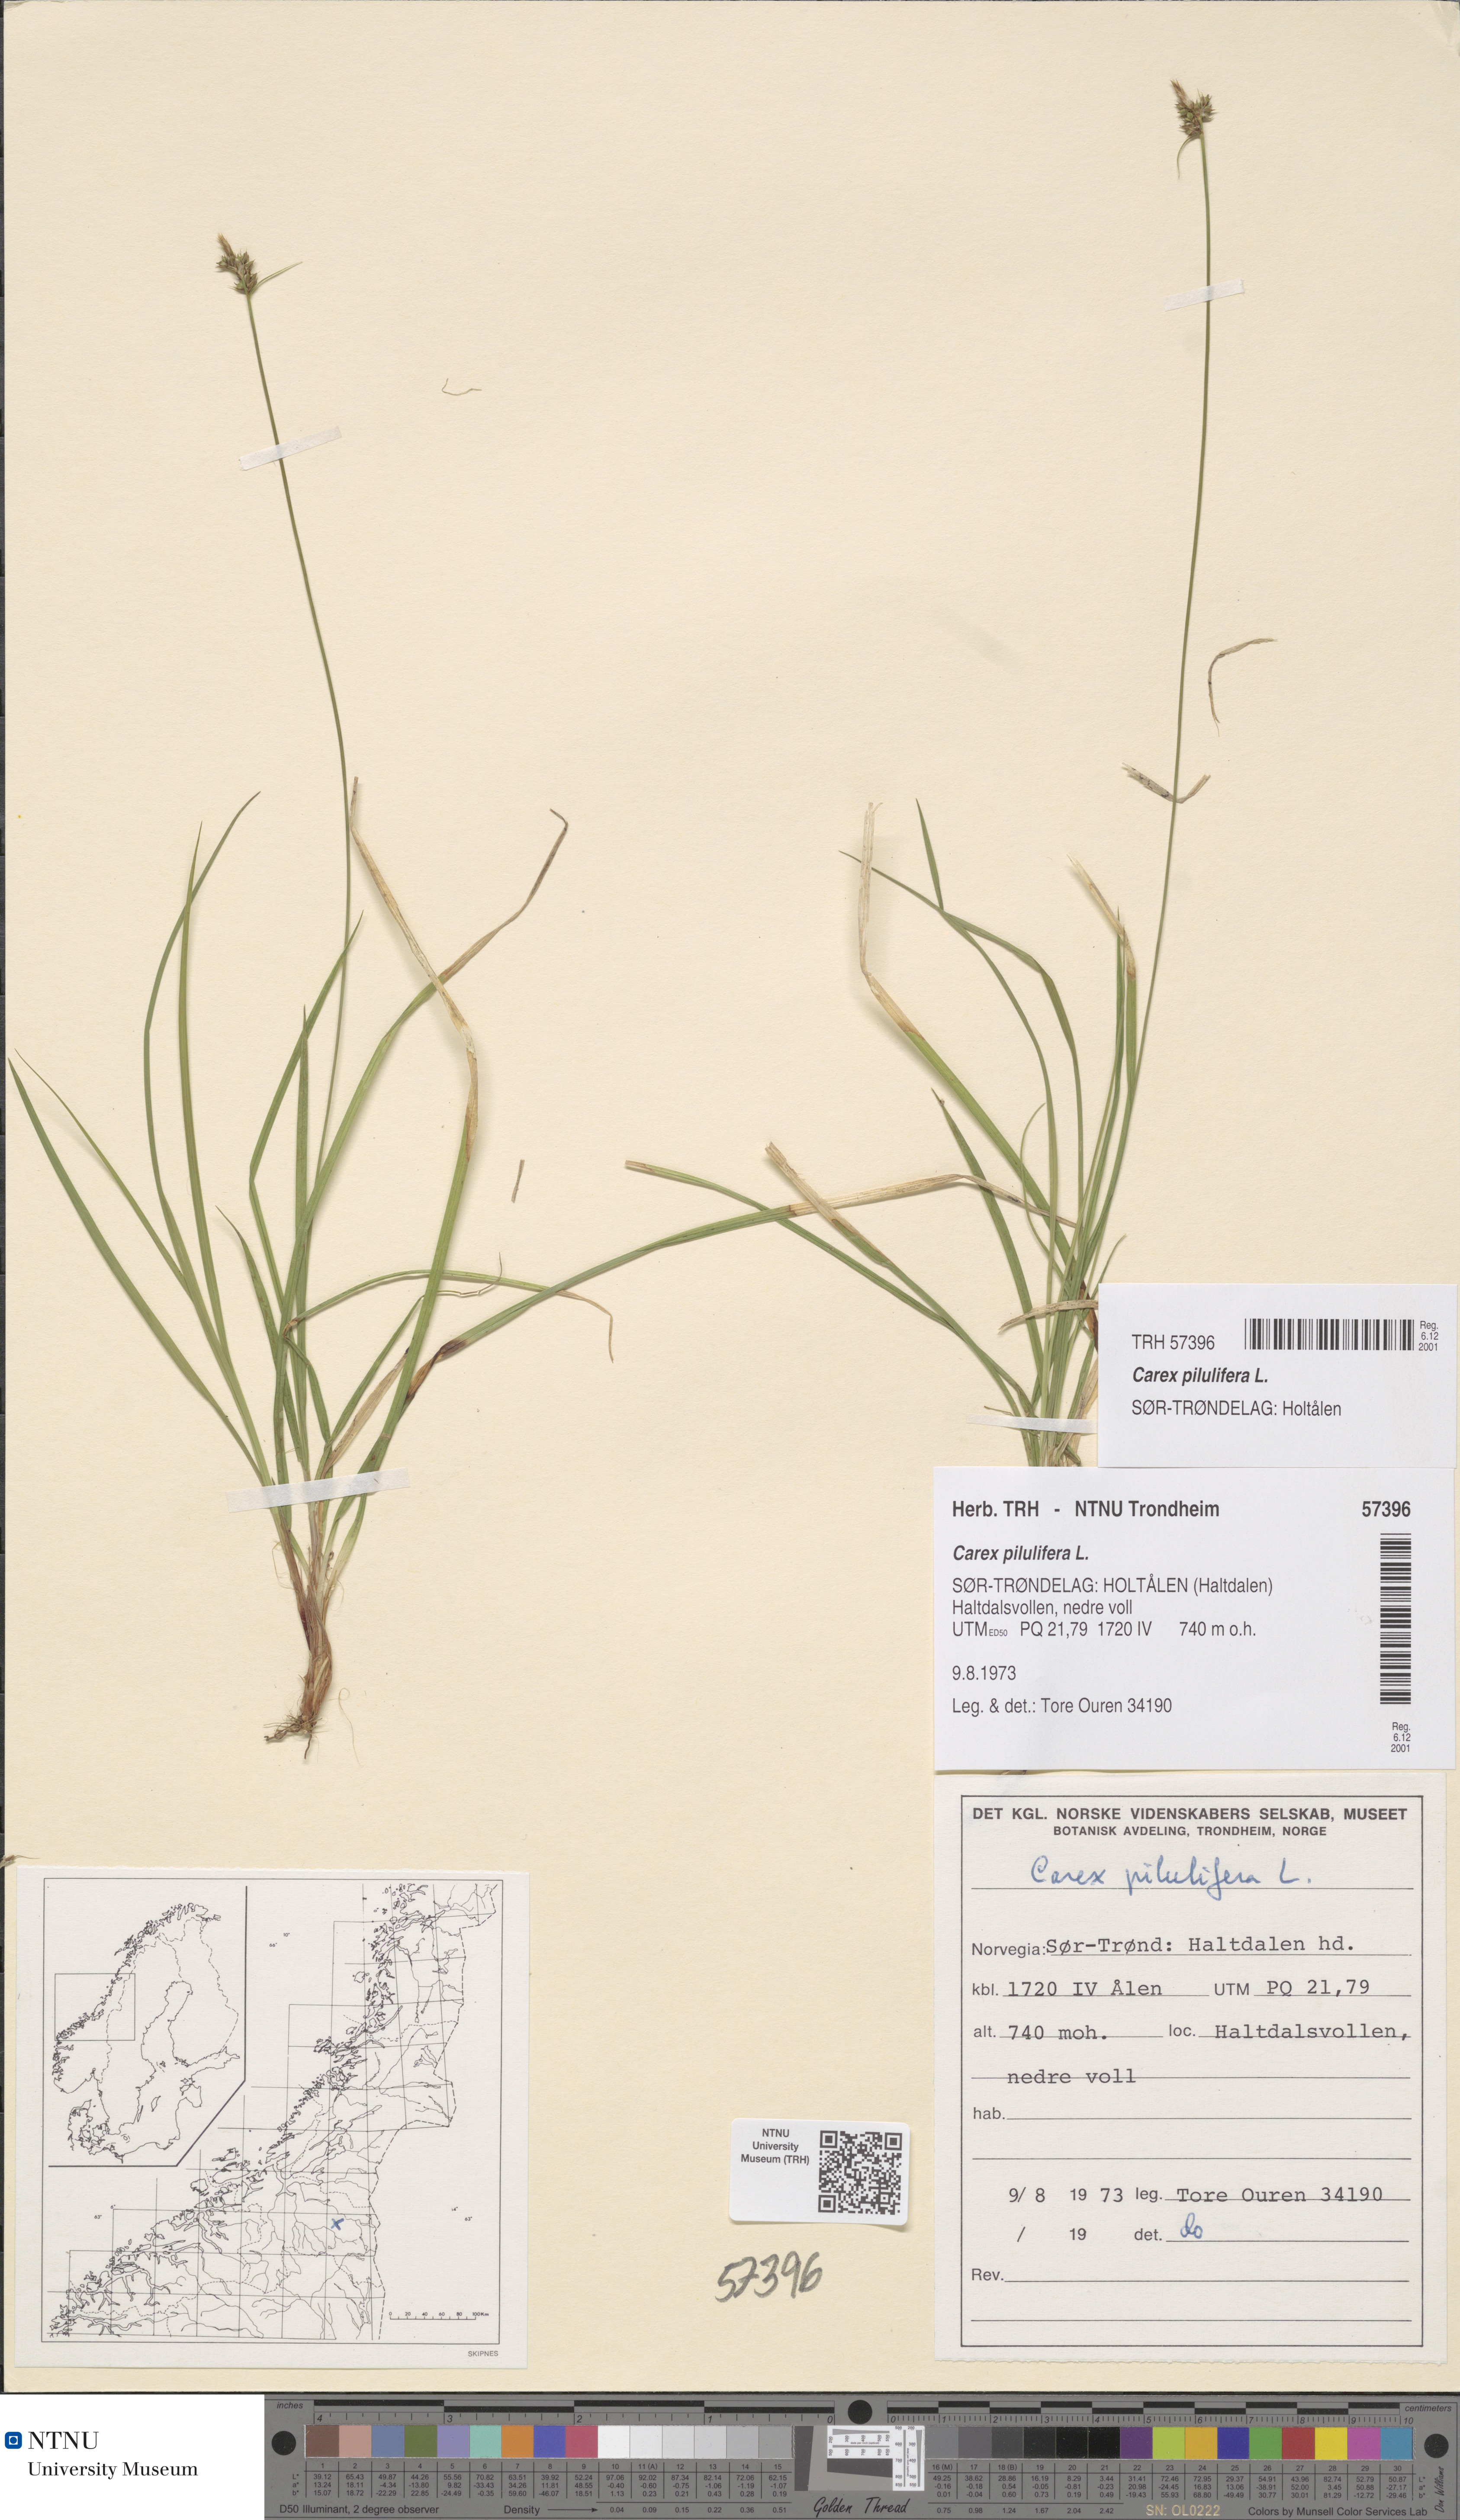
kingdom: Plantae
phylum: Tracheophyta
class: Liliopsida
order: Poales
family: Cyperaceae
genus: Carex
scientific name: Carex pilulifera
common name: Pill sedge
